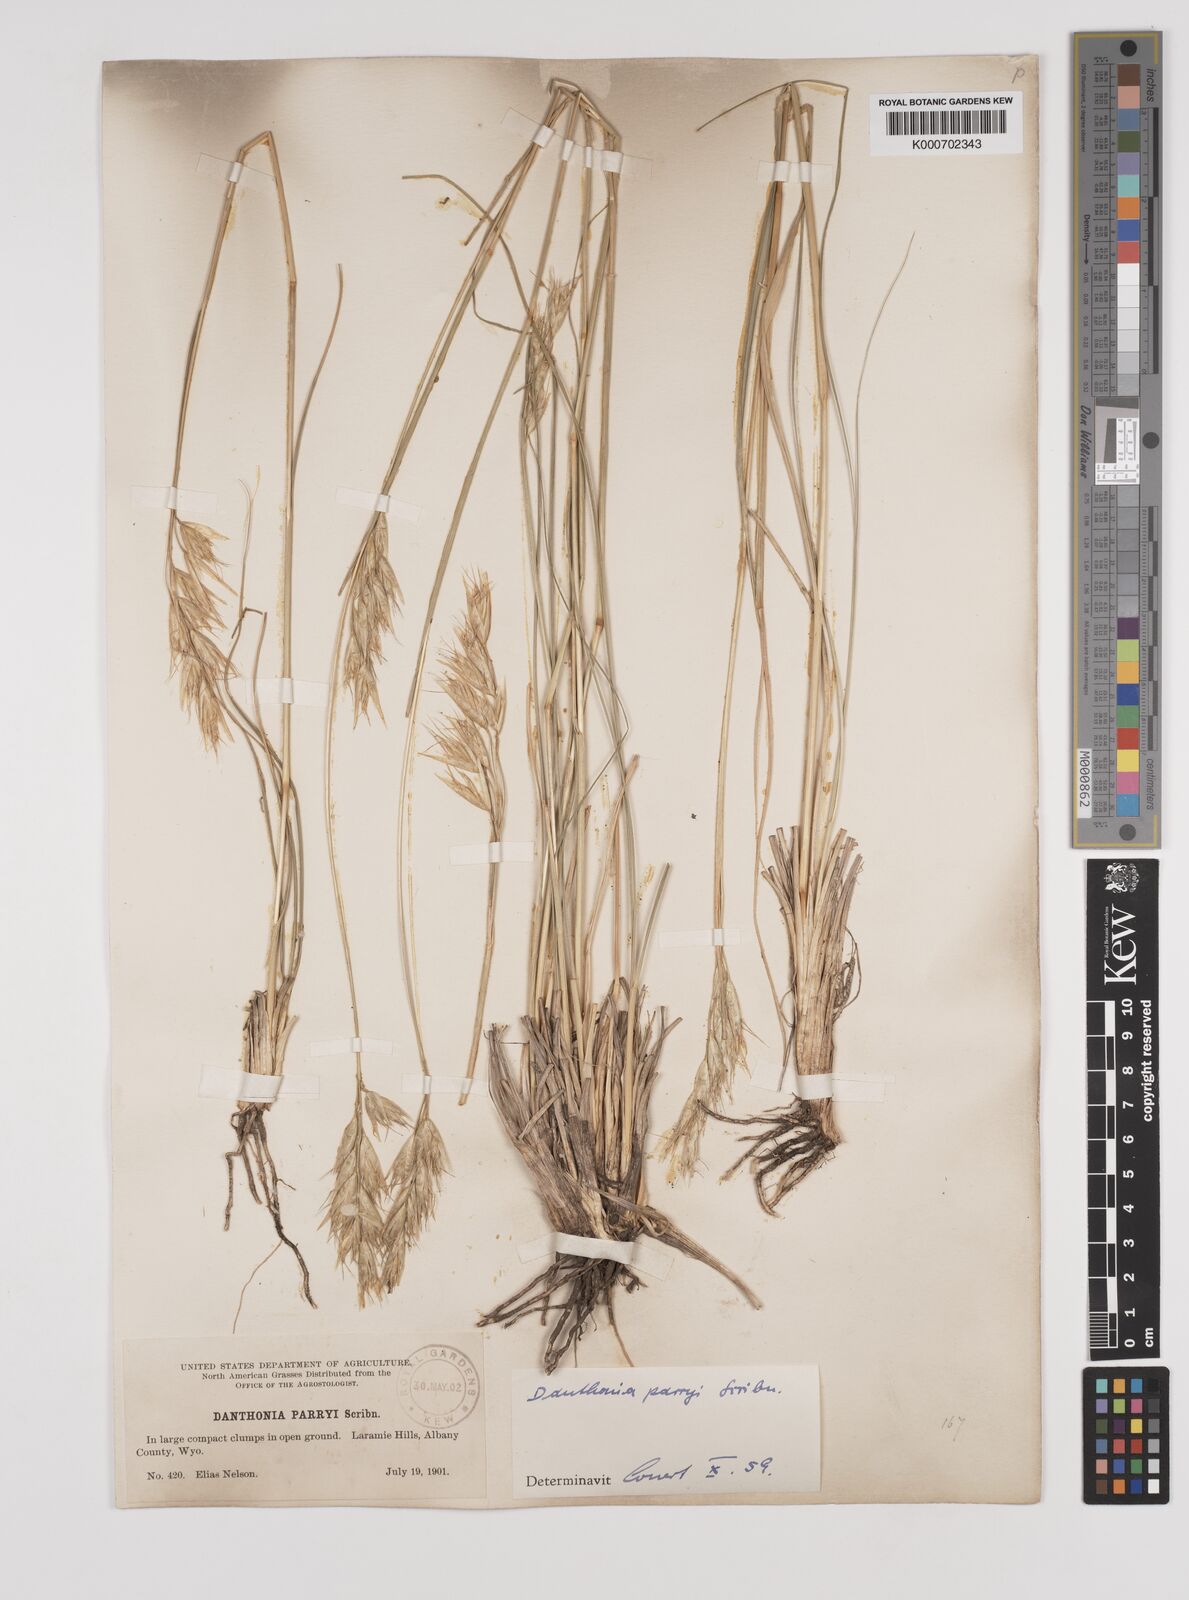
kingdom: Plantae
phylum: Tracheophyta
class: Liliopsida
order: Poales
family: Poaceae
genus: Danthonia
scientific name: Danthonia parryi
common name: Parry's oat grass
